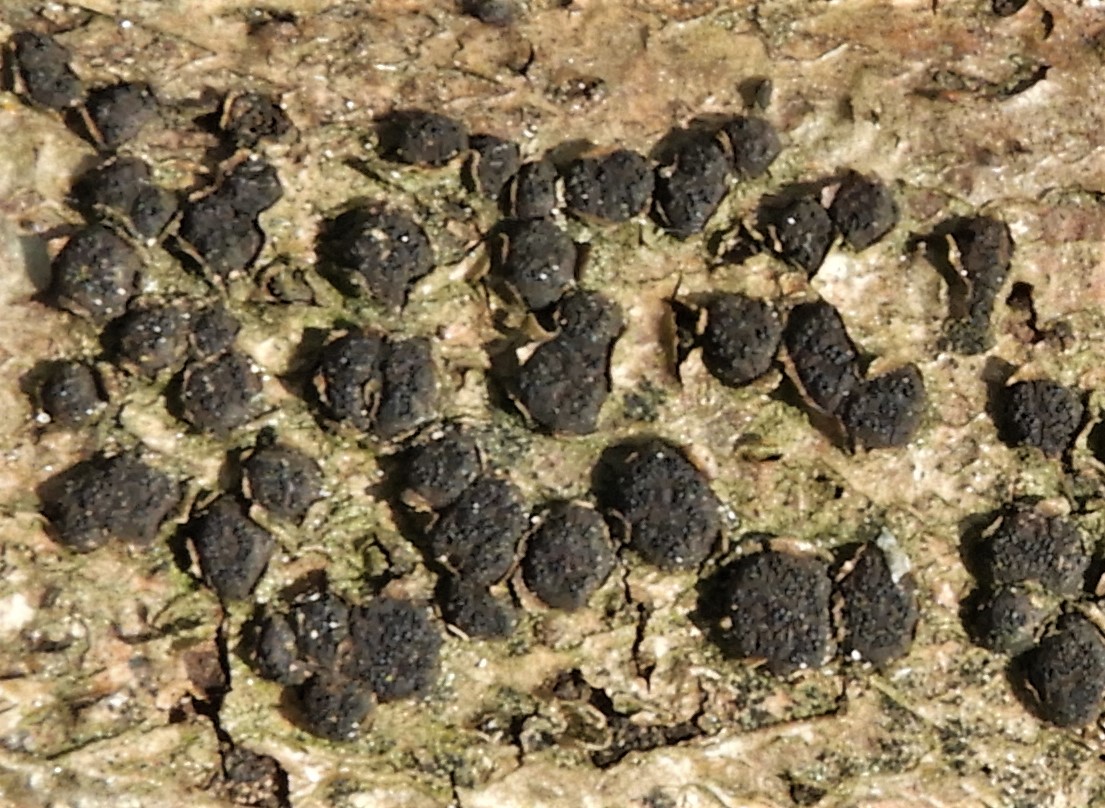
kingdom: Fungi
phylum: Ascomycota
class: Sordariomycetes
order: Xylariales
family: Diatrypaceae
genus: Diatrypella
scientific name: Diatrypella quercina
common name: ege-kulskorpe
